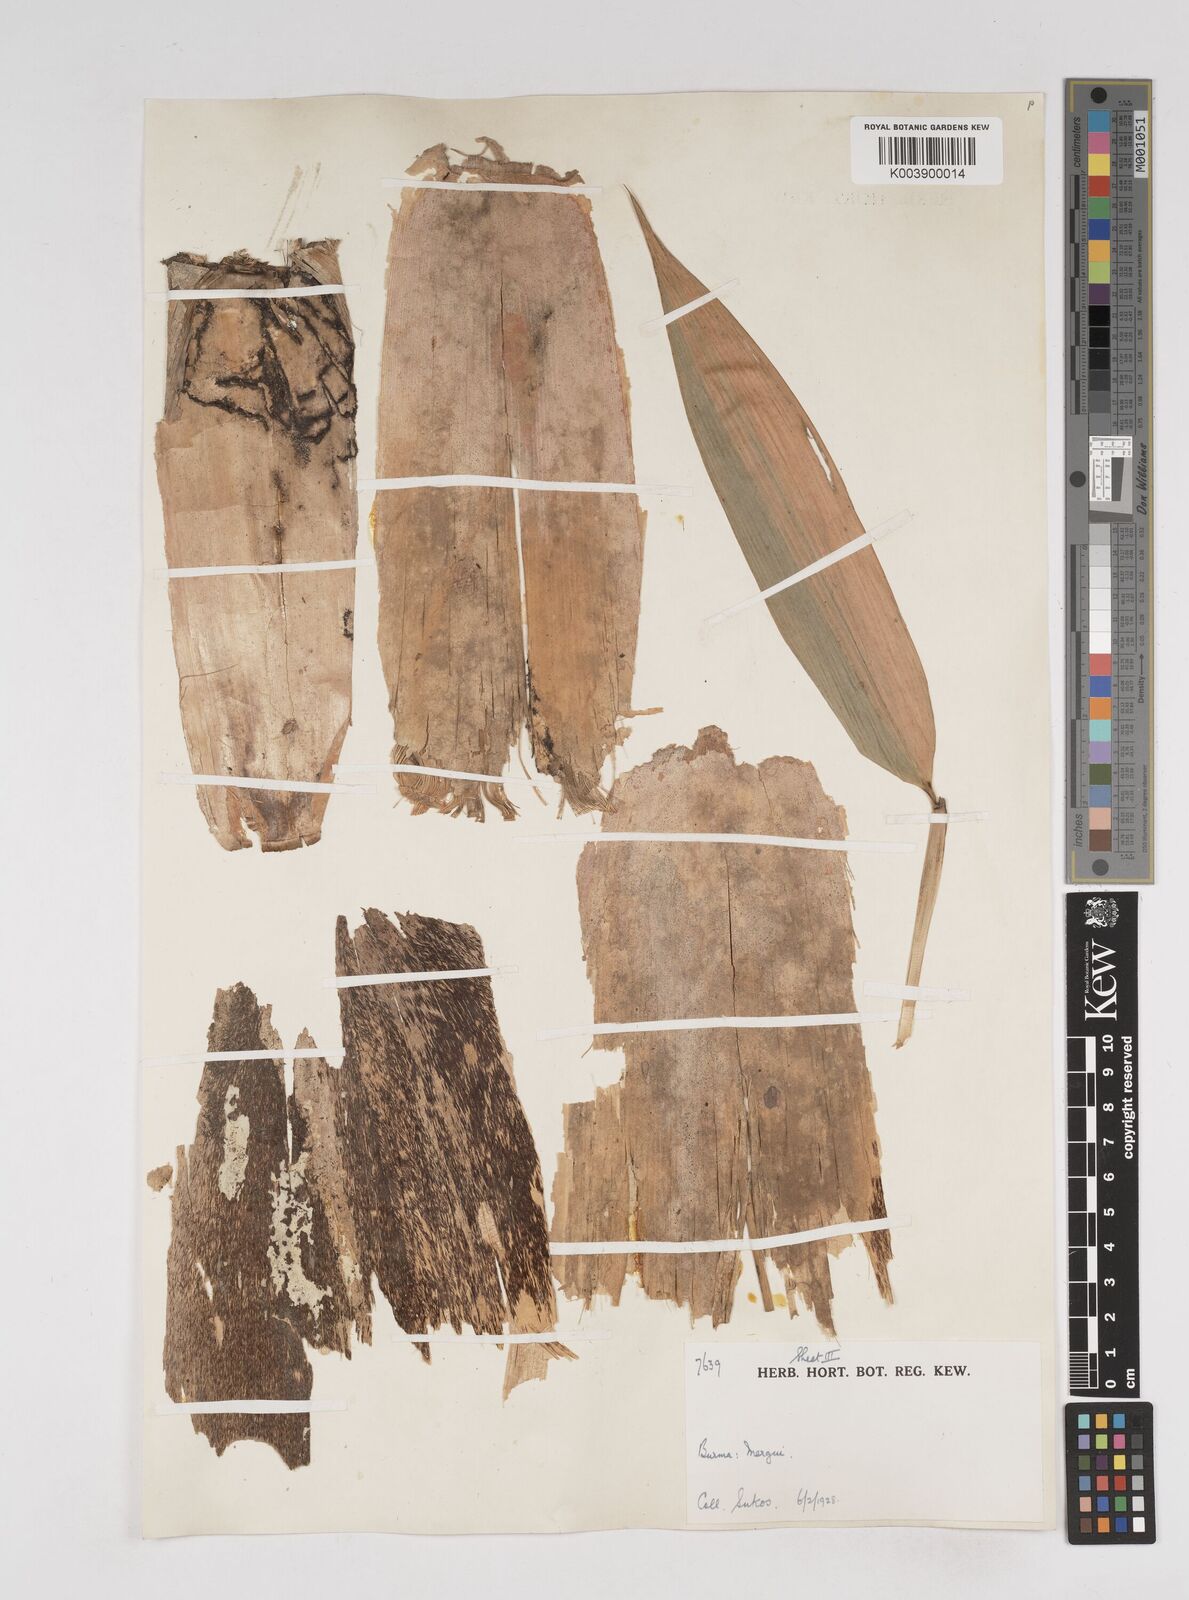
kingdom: Plantae
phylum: Tracheophyta
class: Liliopsida
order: Poales
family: Poaceae
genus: Gigantochloa
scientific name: Gigantochloa
